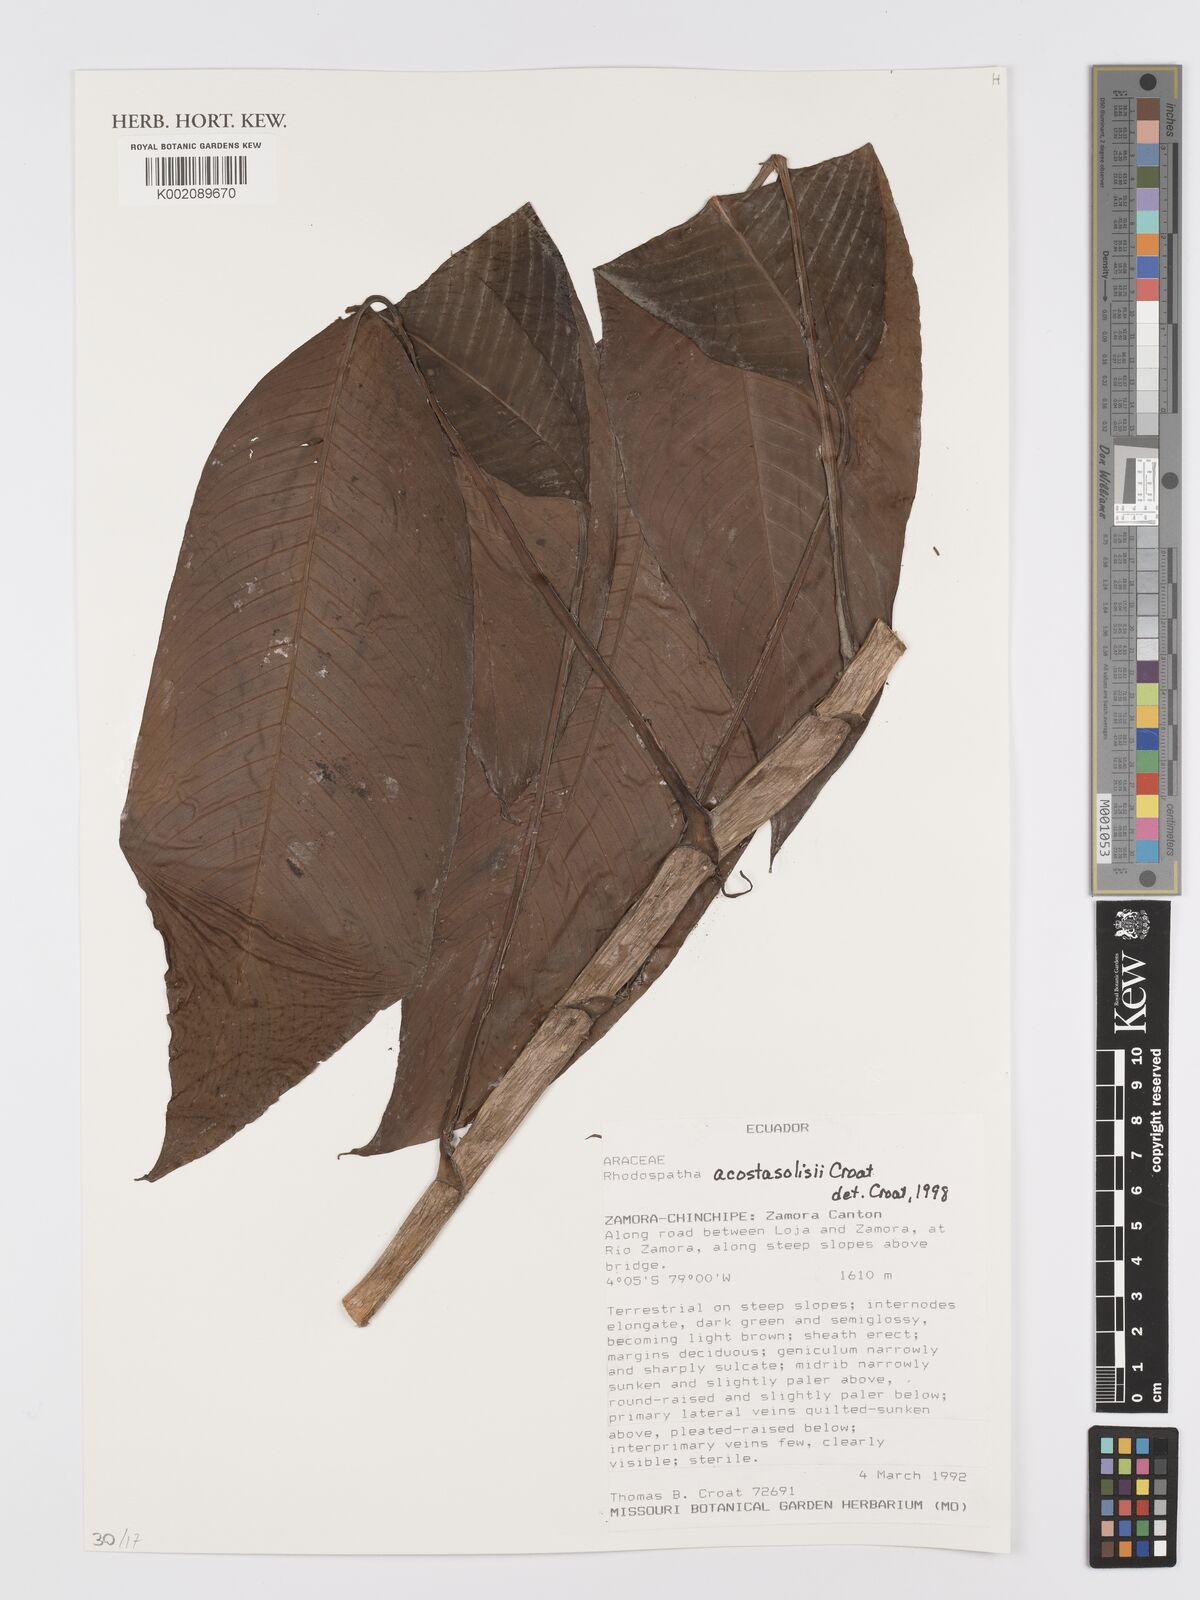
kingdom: Plantae
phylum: Tracheophyta
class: Liliopsida
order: Alismatales
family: Araceae
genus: Rhodospatha
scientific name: Rhodospatha acosta-solisii
